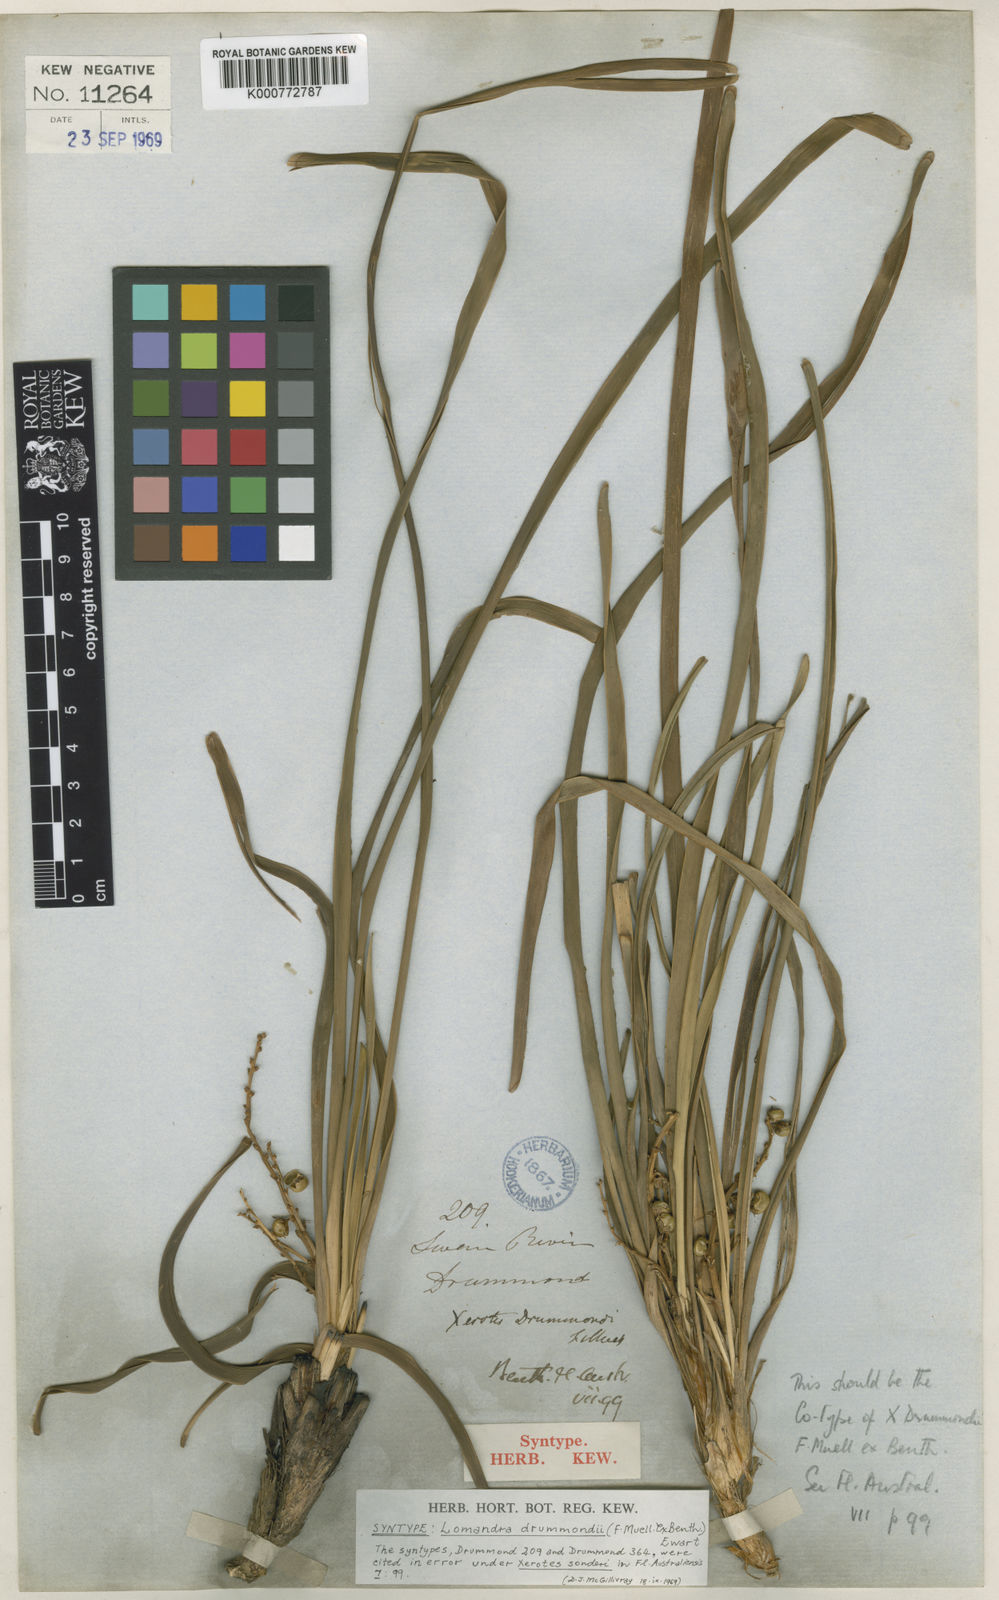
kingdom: Plantae
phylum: Tracheophyta
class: Liliopsida
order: Asparagales
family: Asparagaceae
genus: Lomandra
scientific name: Lomandra drummondii
